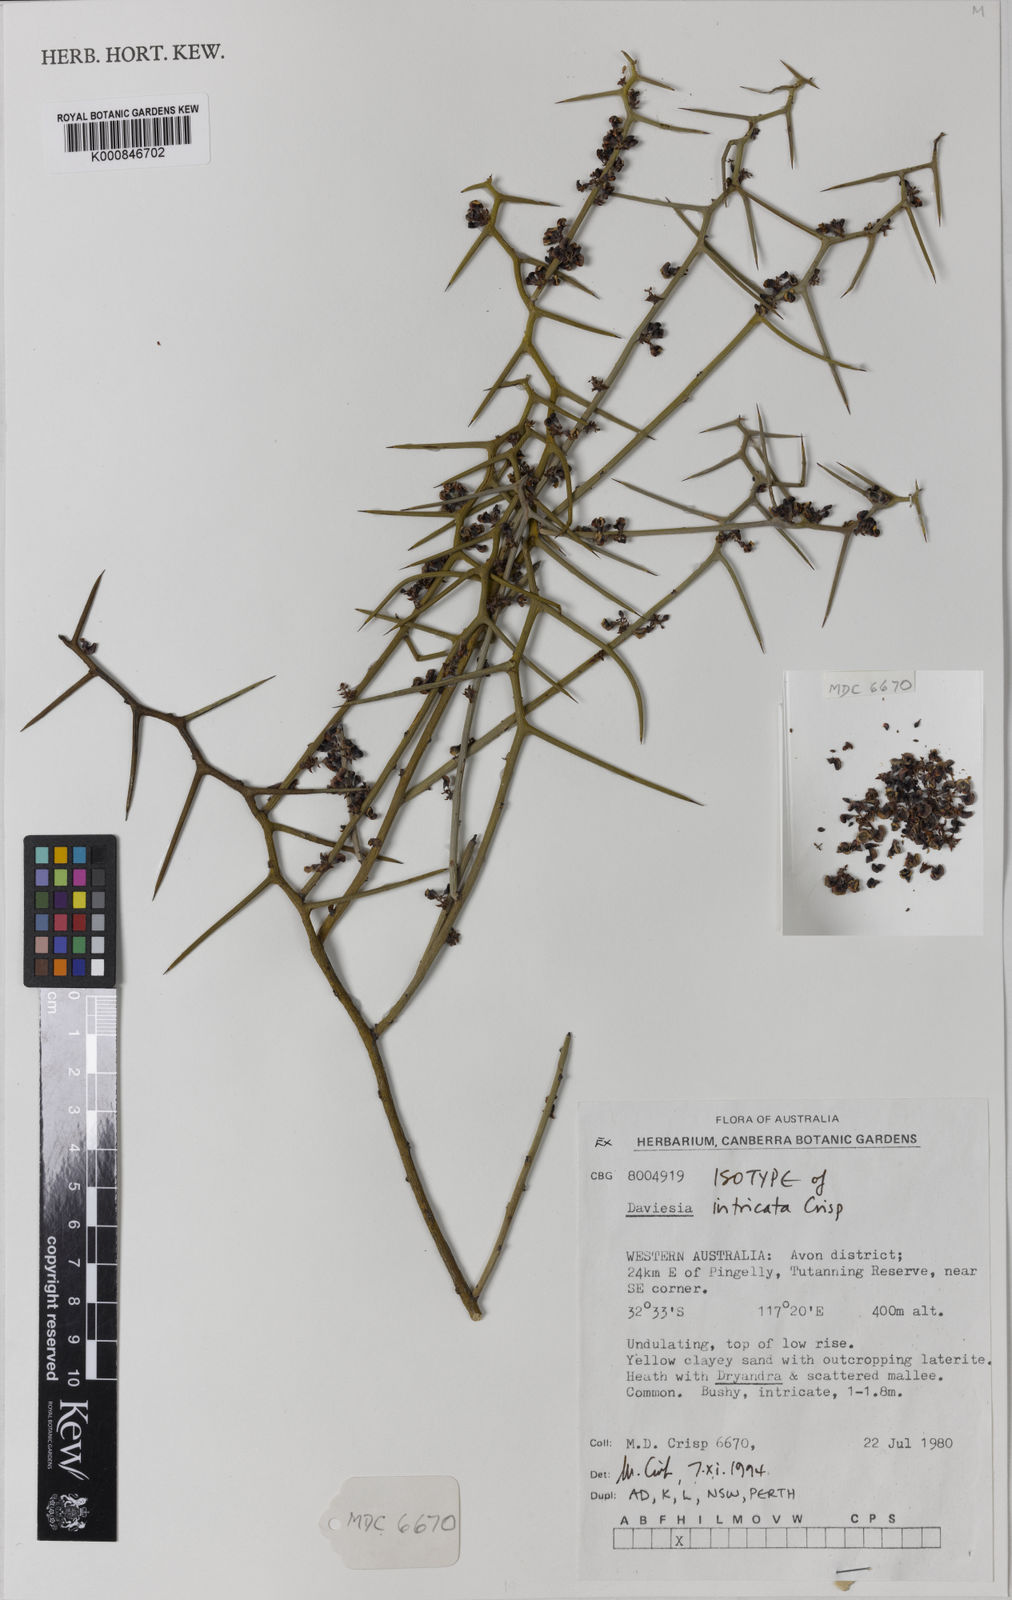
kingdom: Plantae
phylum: Tracheophyta
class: Magnoliopsida
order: Fabales
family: Fabaceae
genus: Daviesia
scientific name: Daviesia intricata
